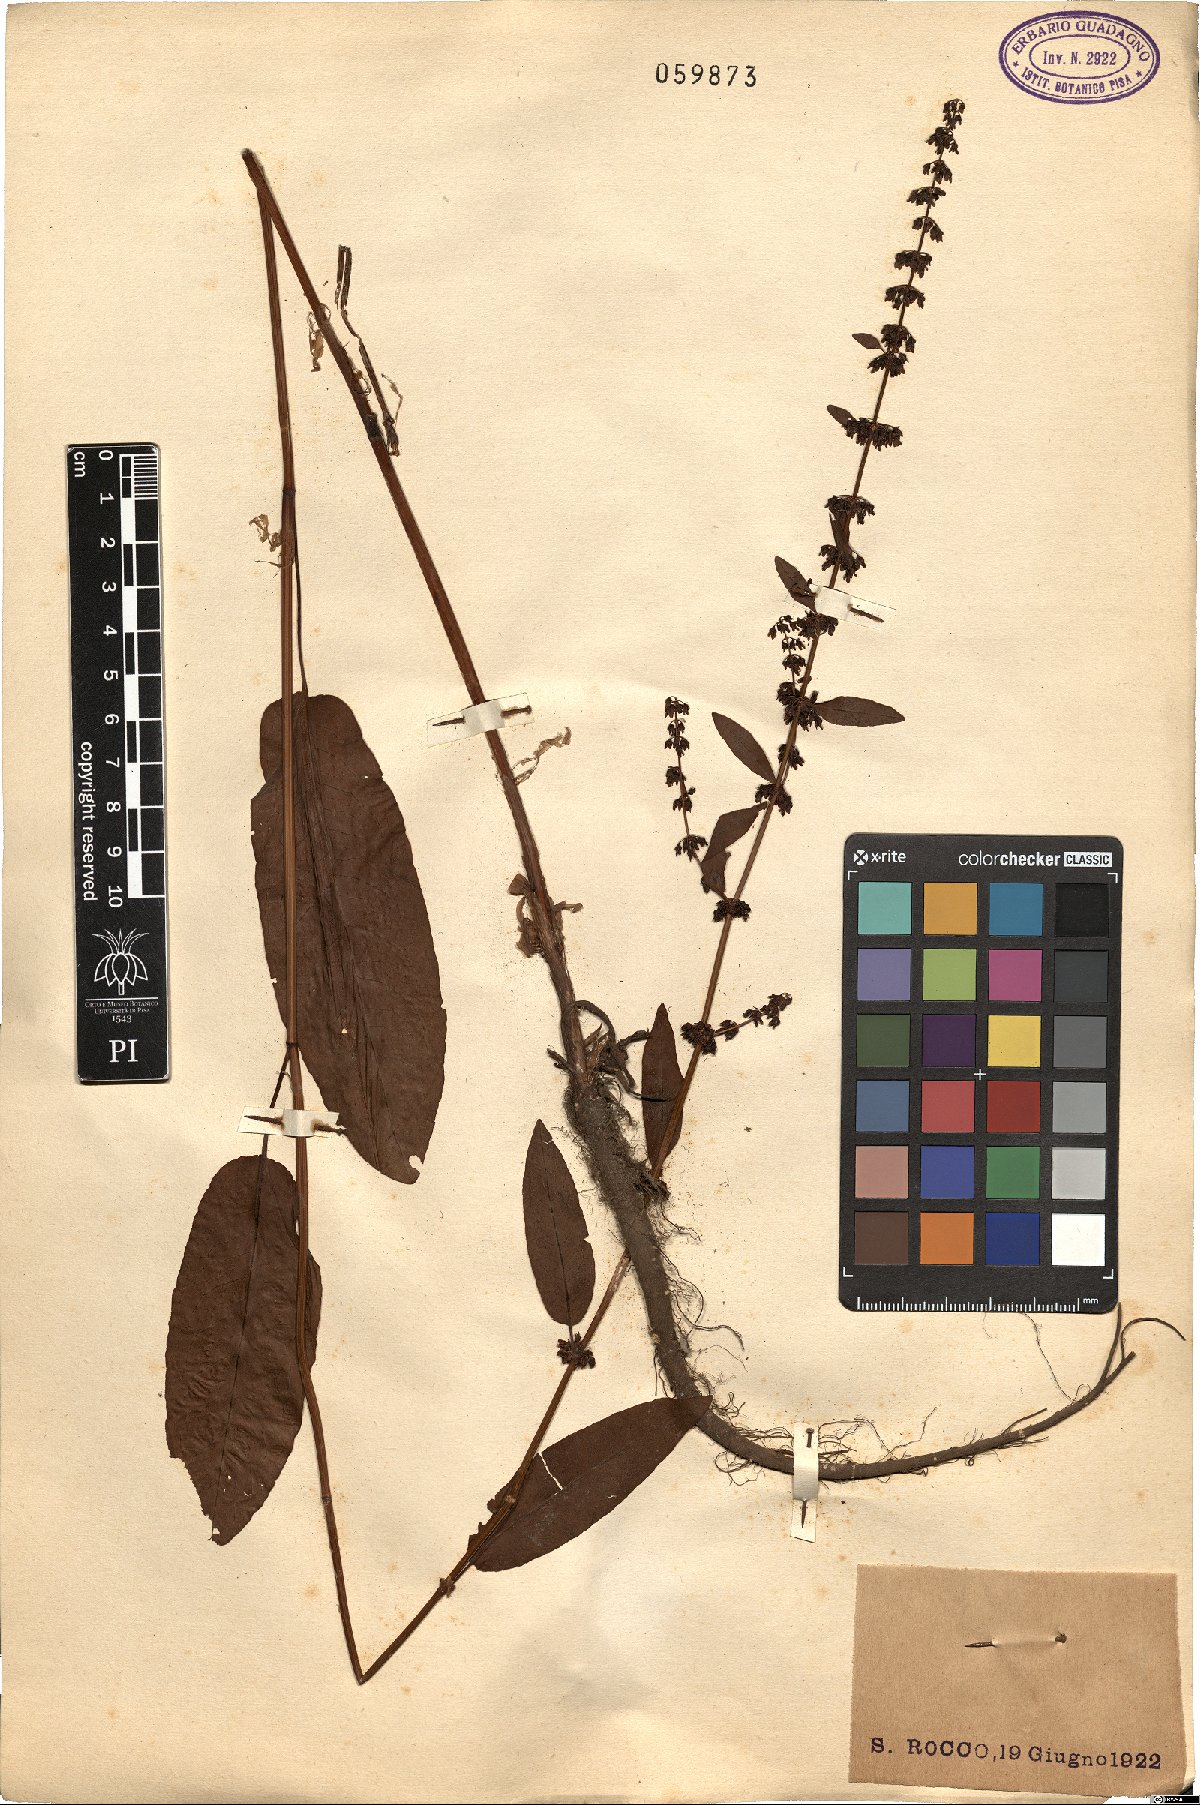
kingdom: Plantae
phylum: Tracheophyta
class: Magnoliopsida
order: Caryophyllales
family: Polygonaceae
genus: Rumex
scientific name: Rumex
